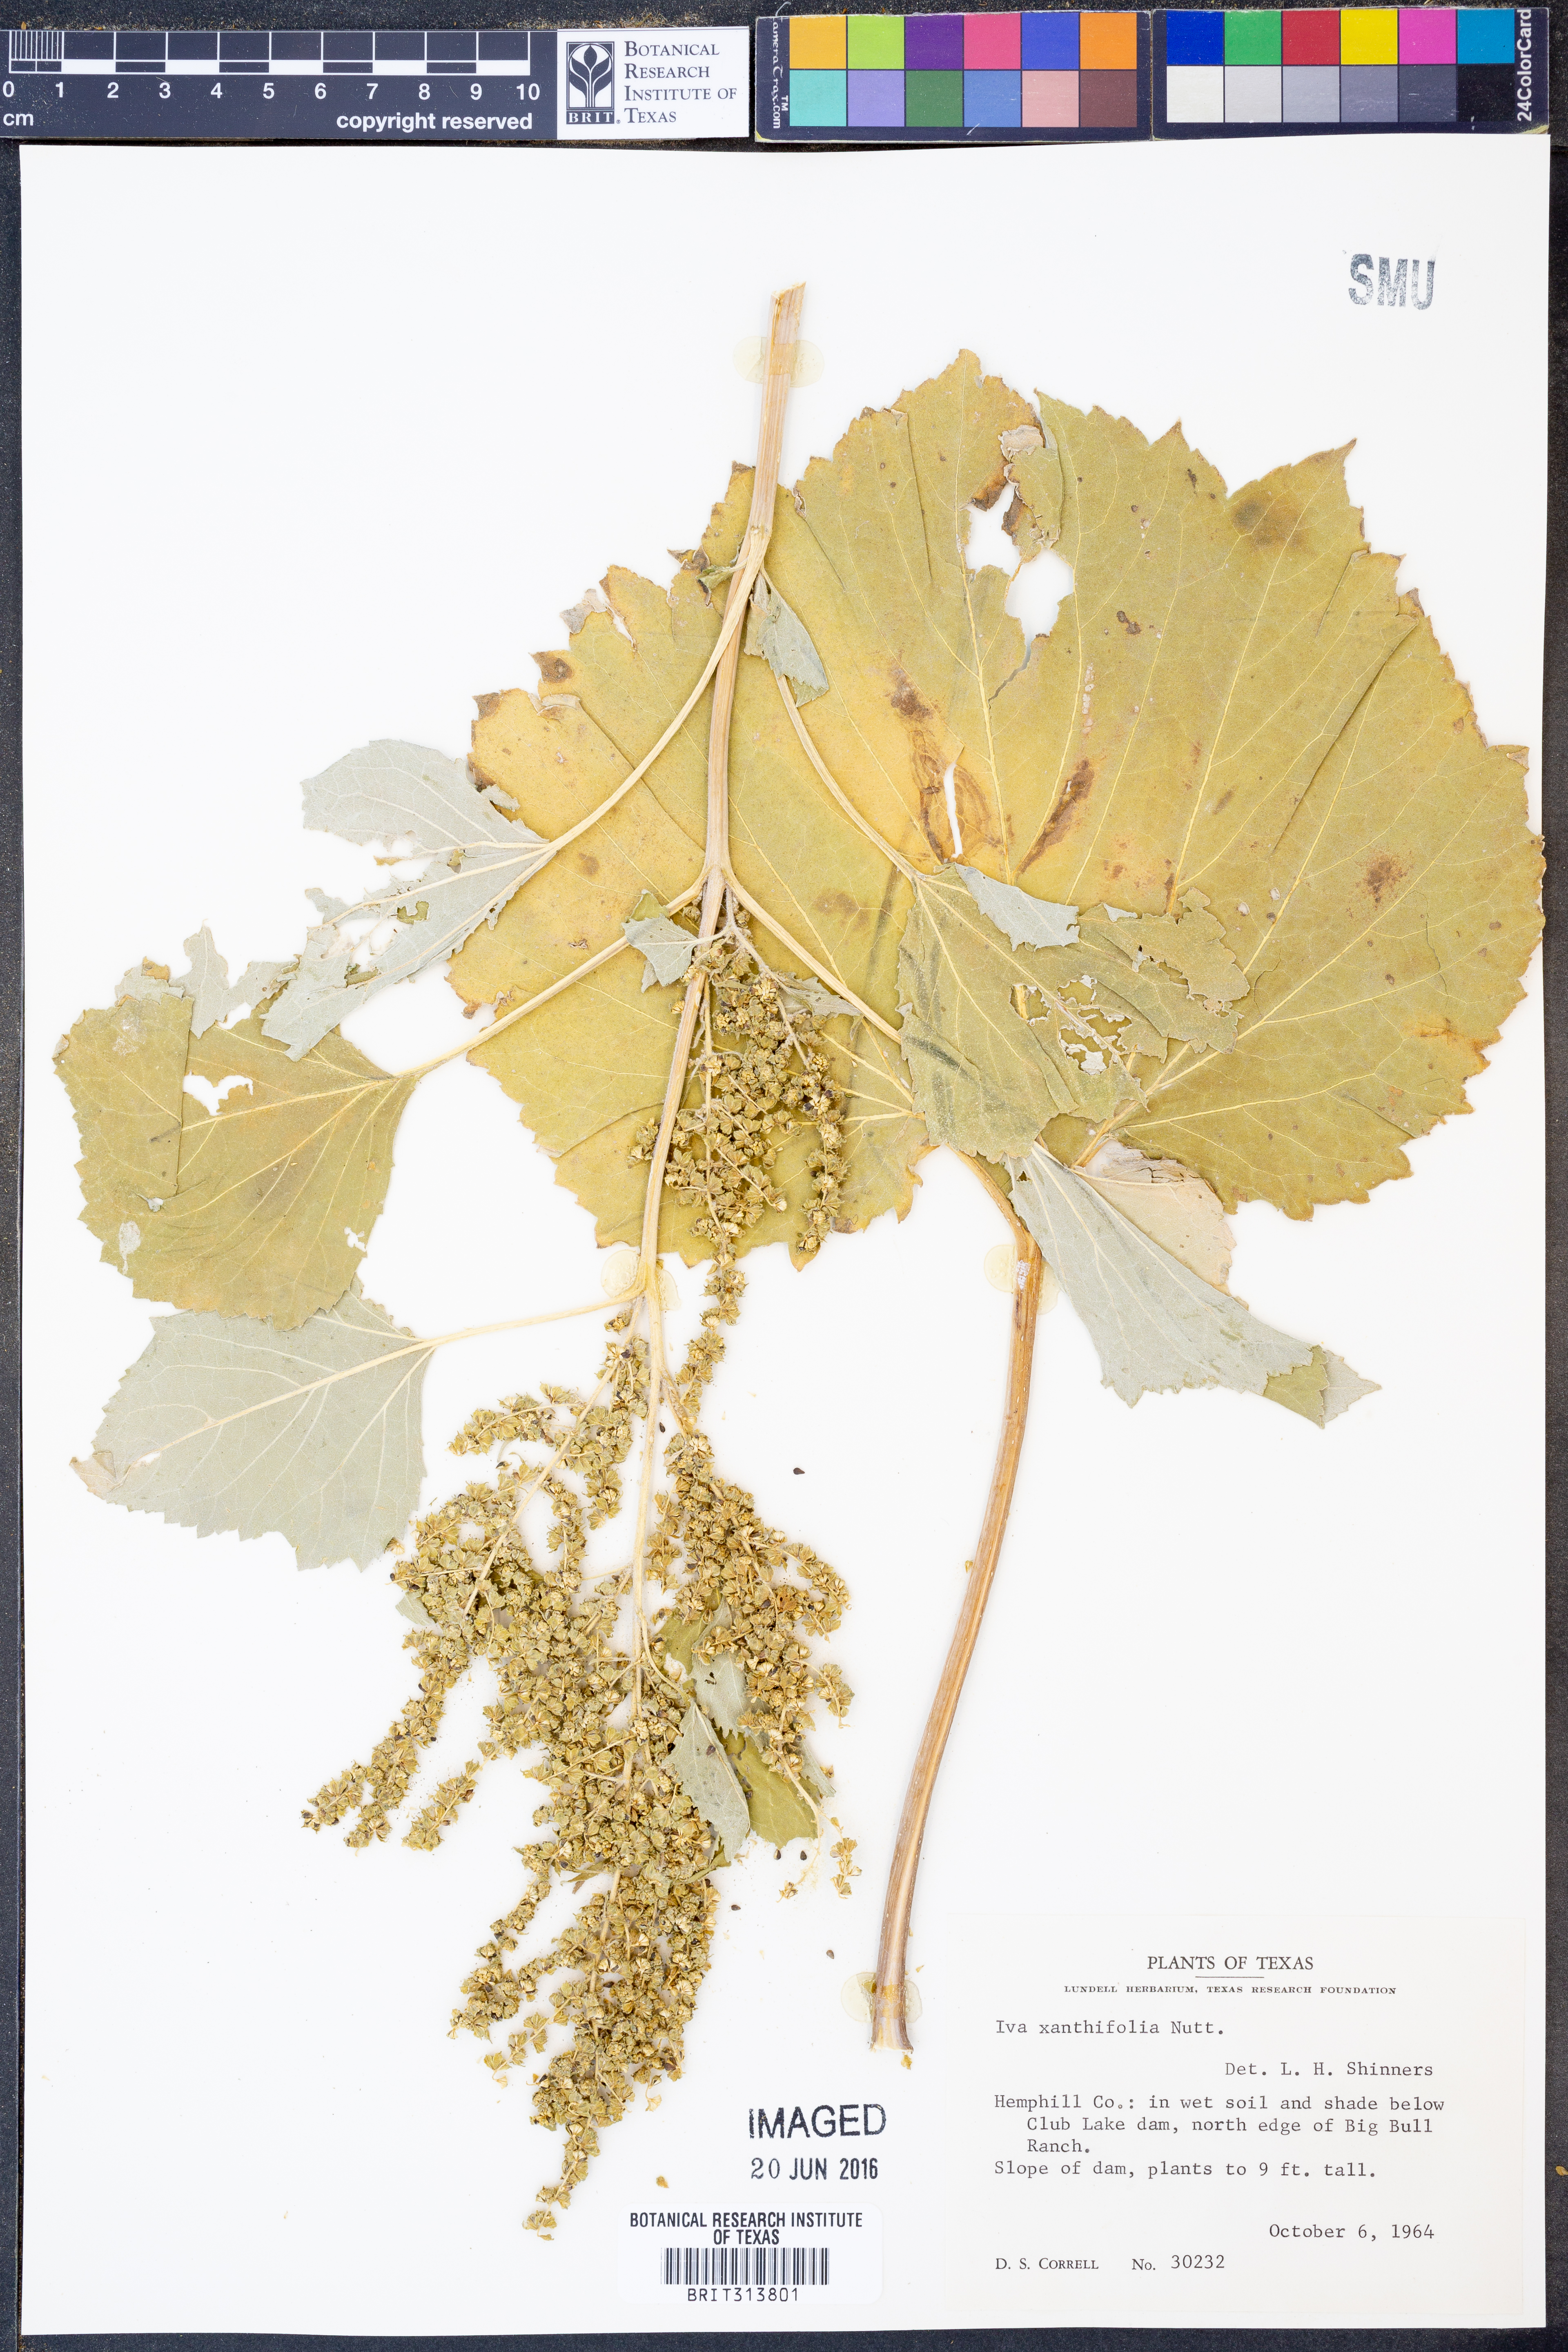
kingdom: Plantae
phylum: Tracheophyta
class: Magnoliopsida
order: Asterales
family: Asteraceae
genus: Cyclachaena
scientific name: Cyclachaena xanthiifolia
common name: Giant sumpweed
